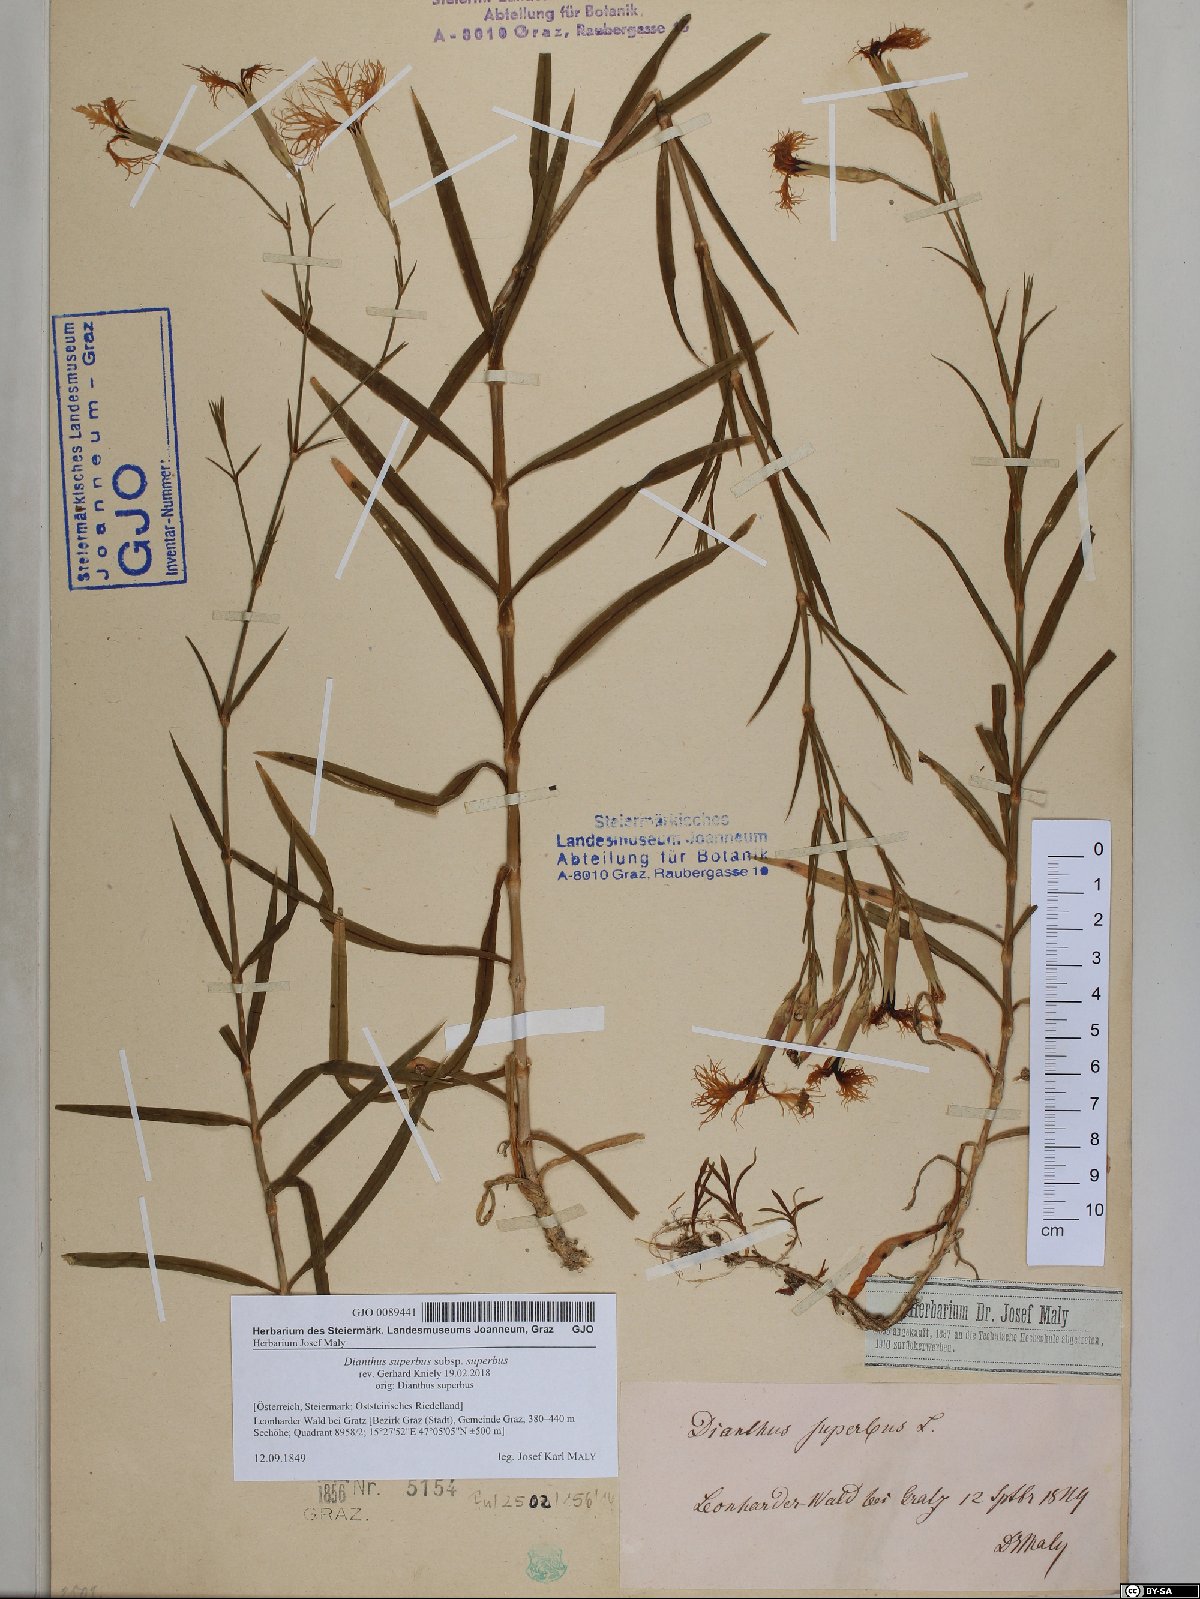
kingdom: Plantae
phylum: Tracheophyta
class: Magnoliopsida
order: Caryophyllales
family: Caryophyllaceae
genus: Dianthus
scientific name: Dianthus superbus
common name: Fringed pink
